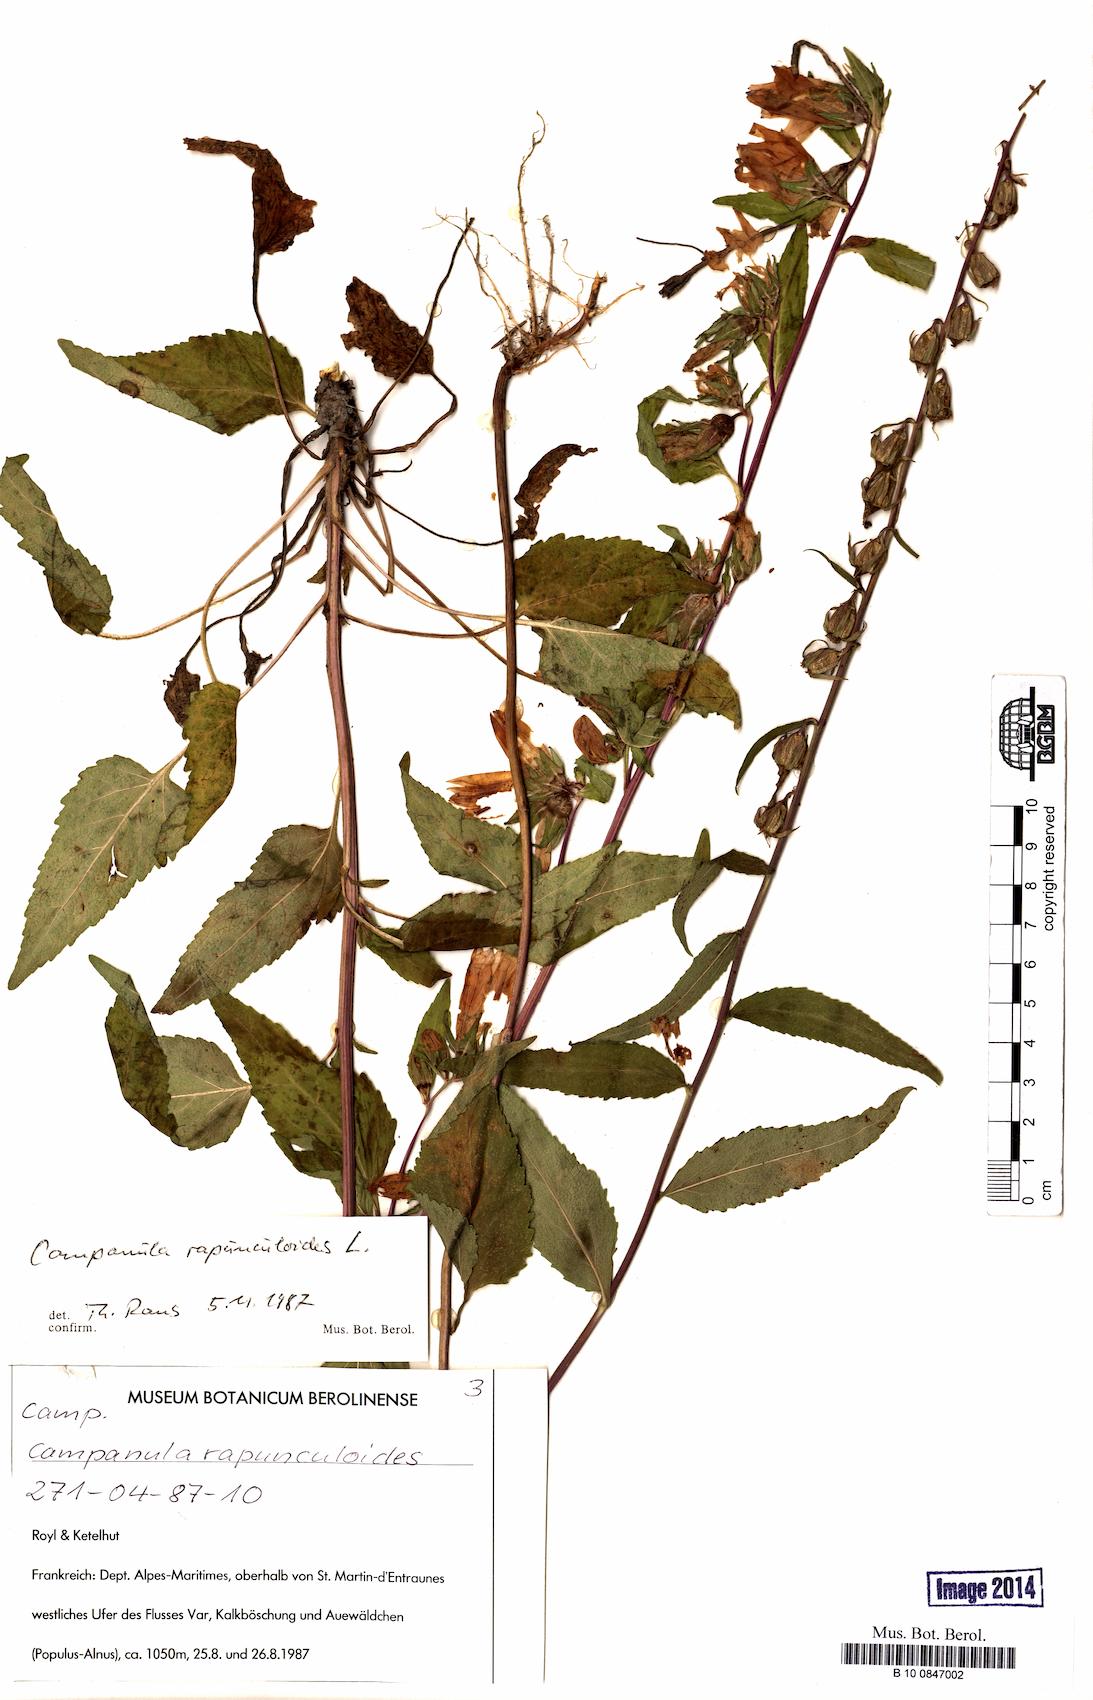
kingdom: Plantae
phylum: Tracheophyta
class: Magnoliopsida
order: Asterales
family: Campanulaceae
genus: Campanula
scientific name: Campanula rapunculoides
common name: Creeping bellflower
